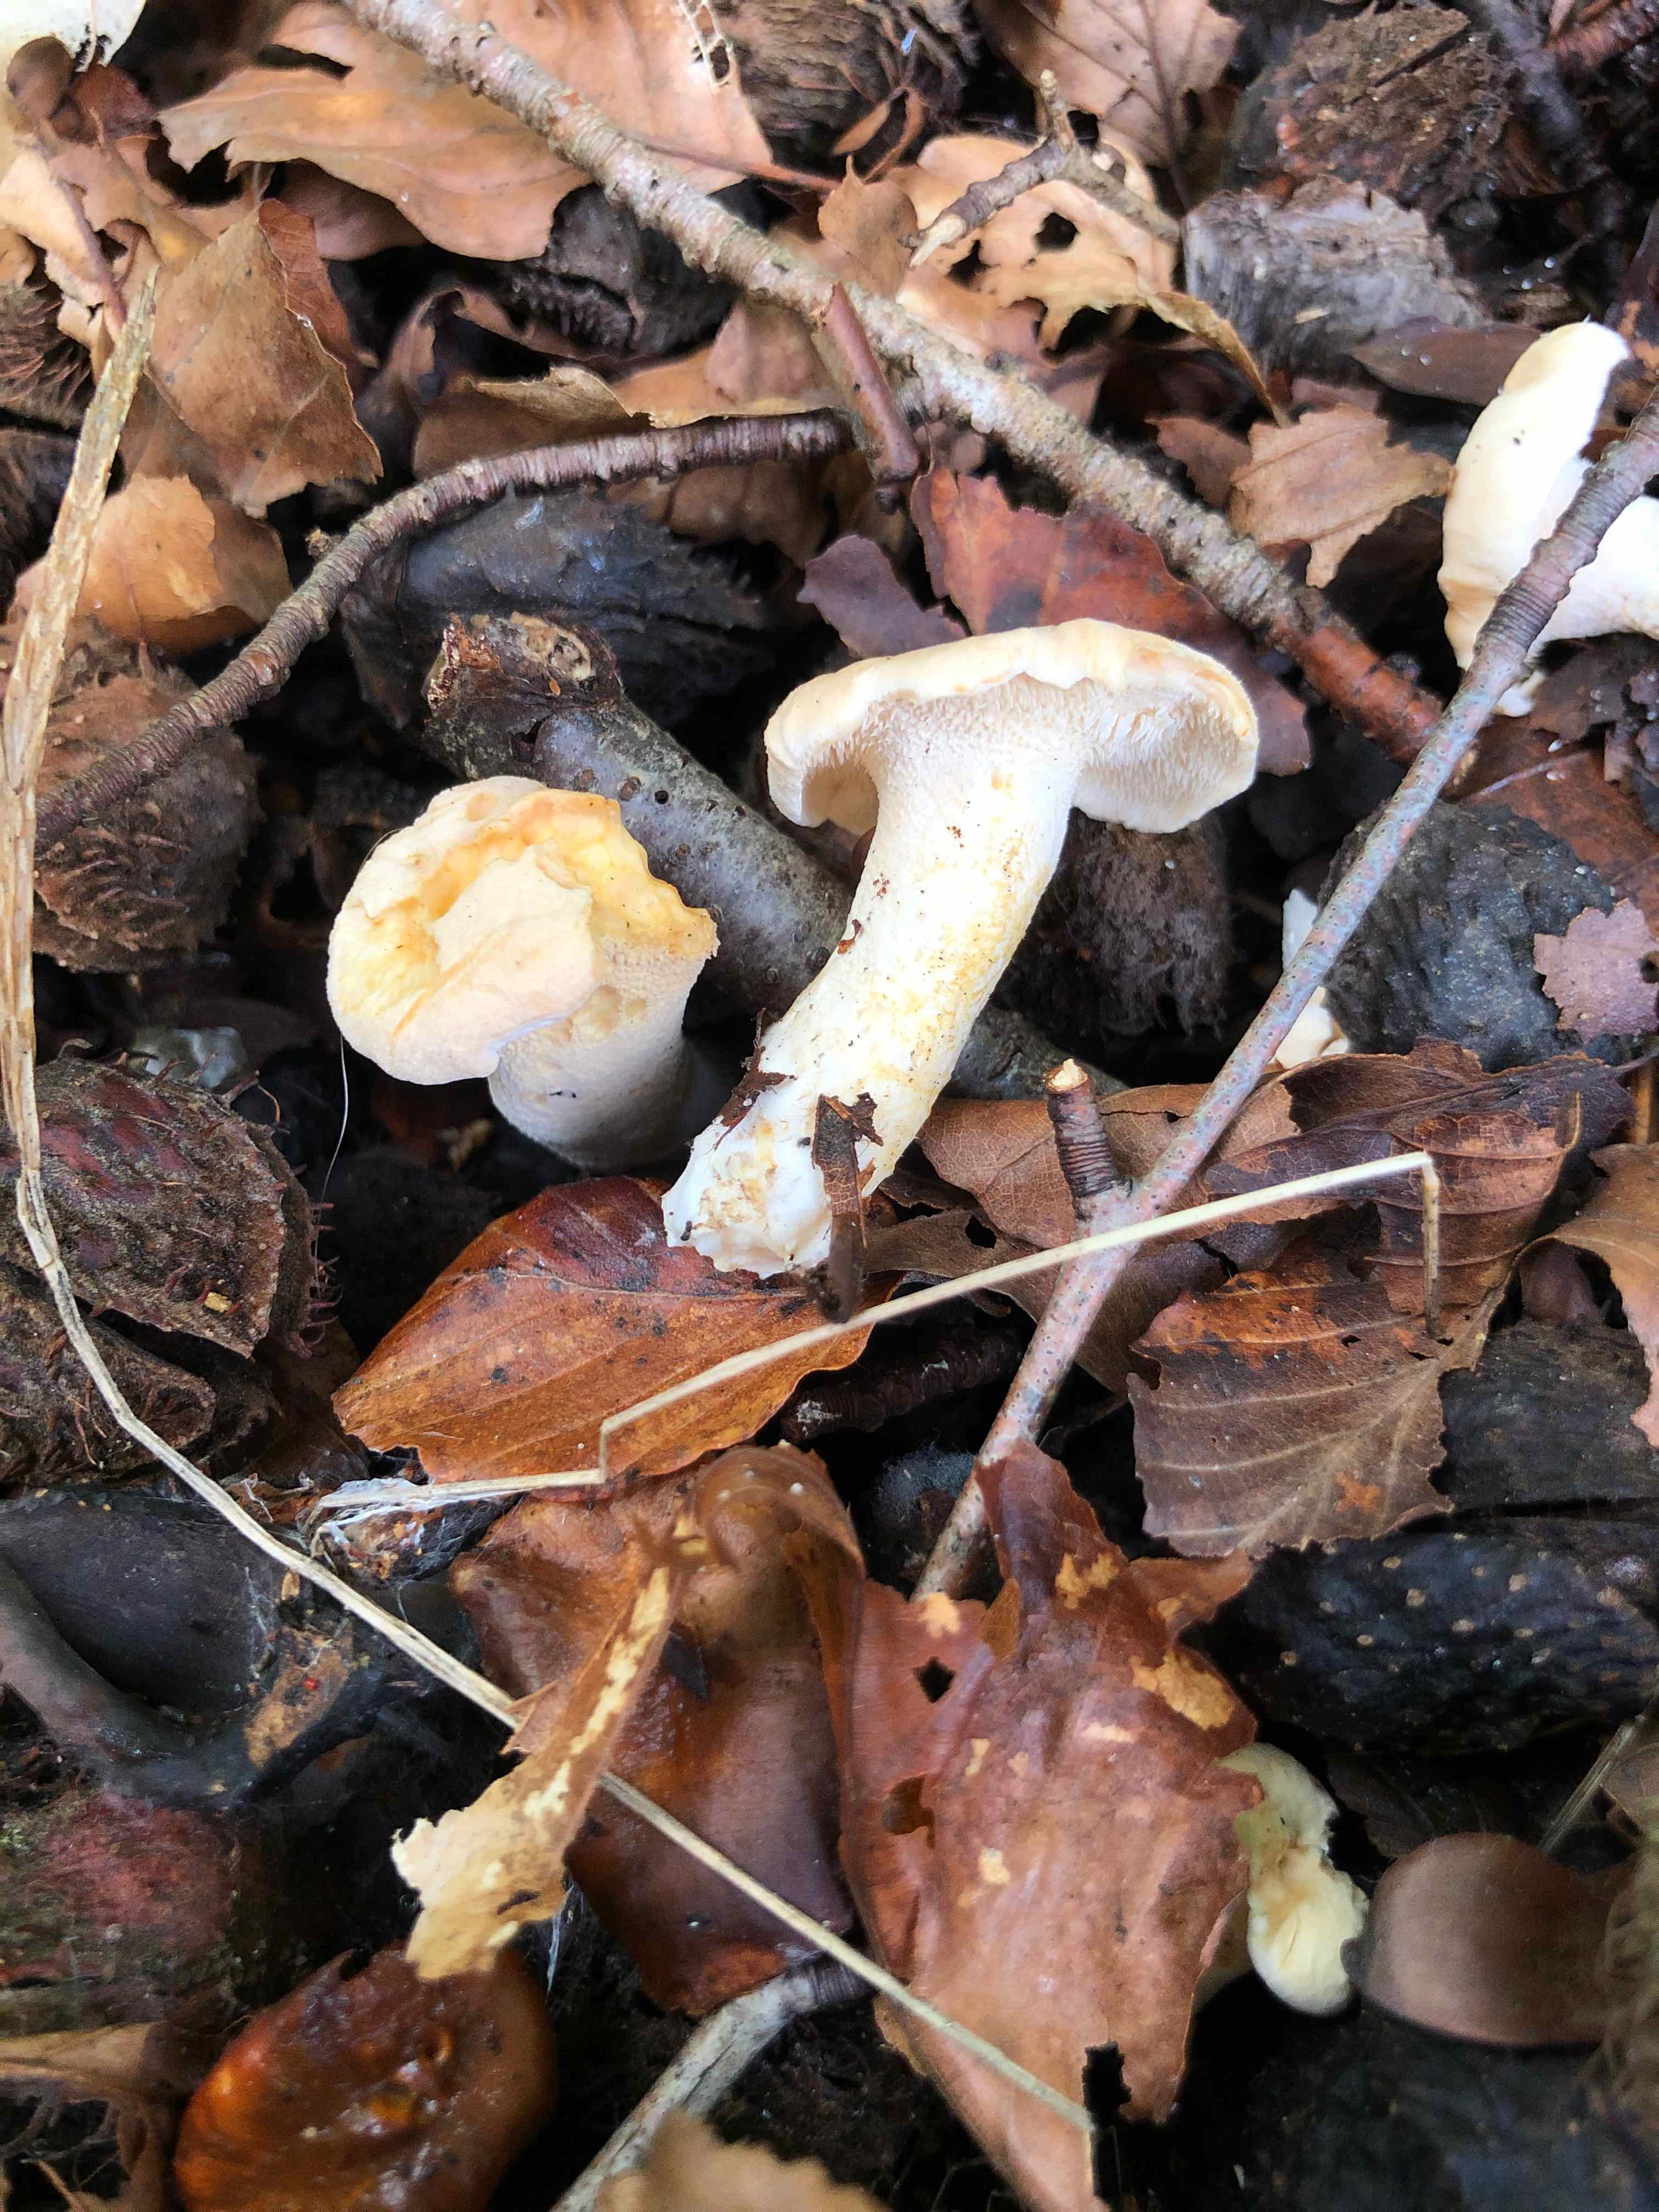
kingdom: Fungi
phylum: Basidiomycota
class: Agaricomycetes
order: Cantharellales
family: Hydnaceae
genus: Hydnum
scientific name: Hydnum rufescens
